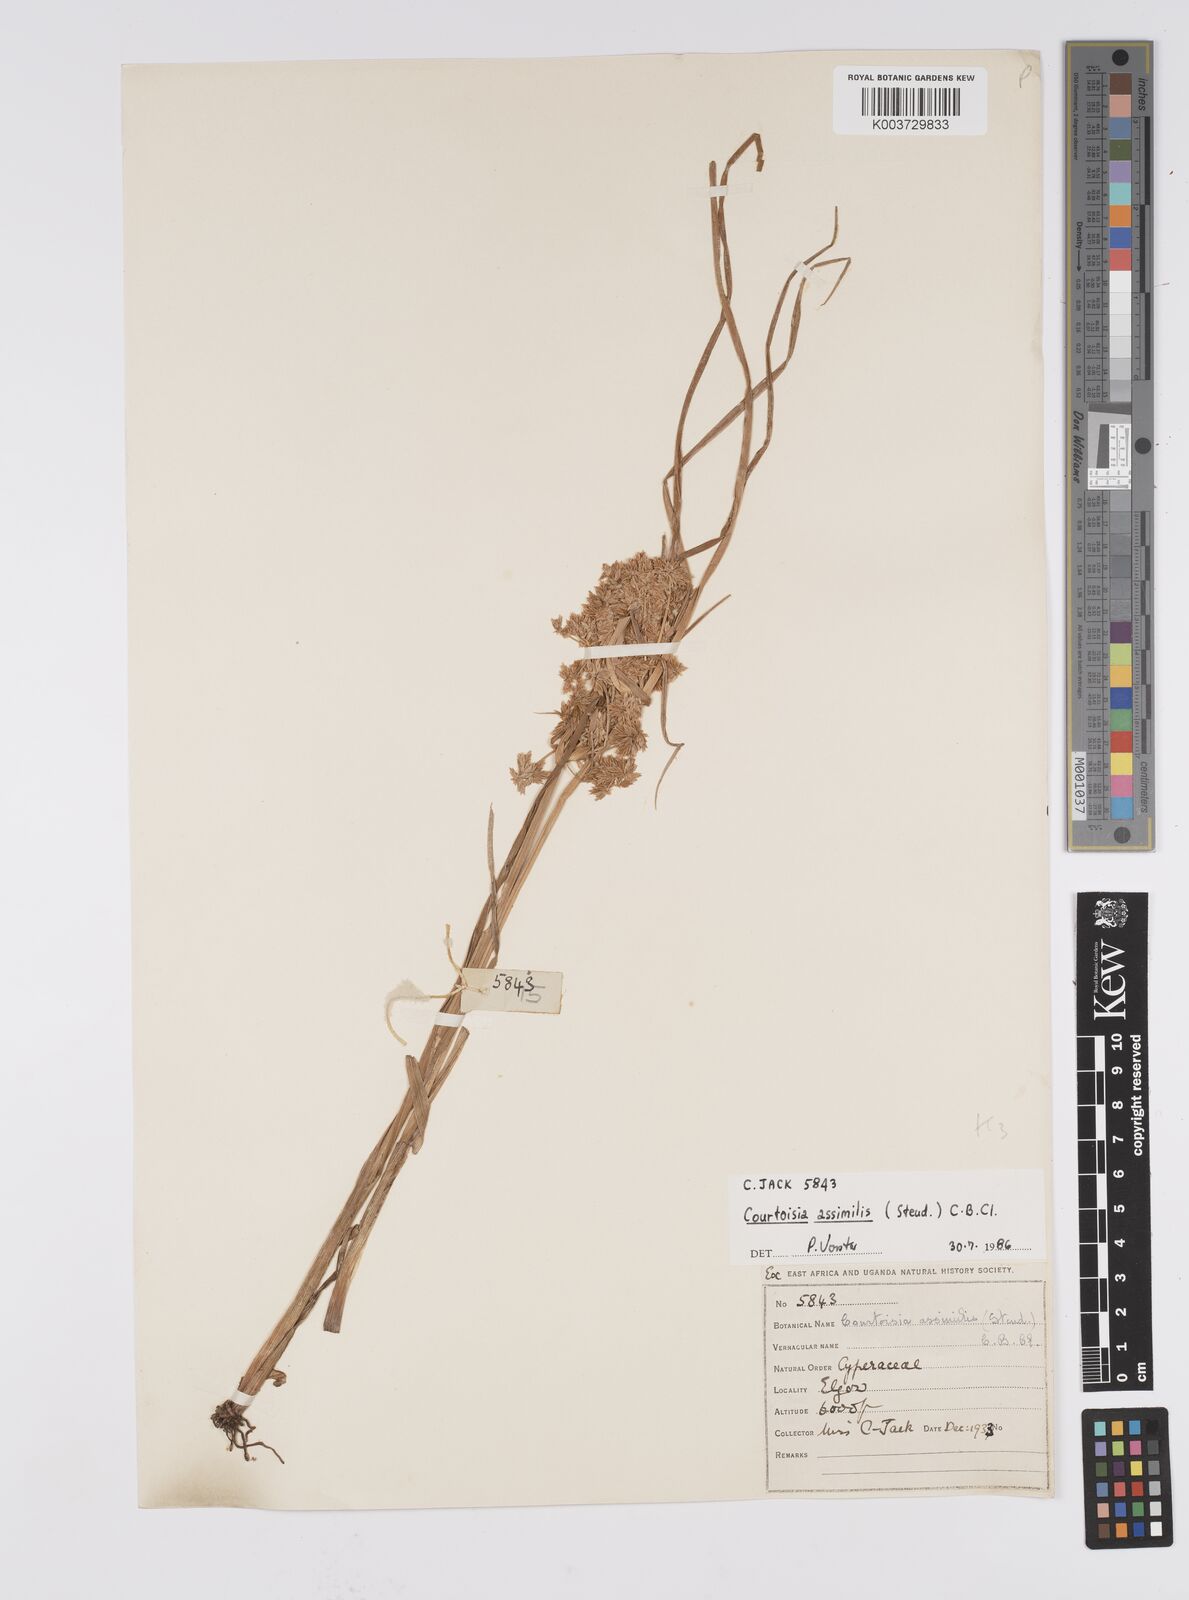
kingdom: Plantae
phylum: Tracheophyta
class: Liliopsida
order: Poales
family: Cyperaceae
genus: Cyperus
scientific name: Cyperus assimilis
